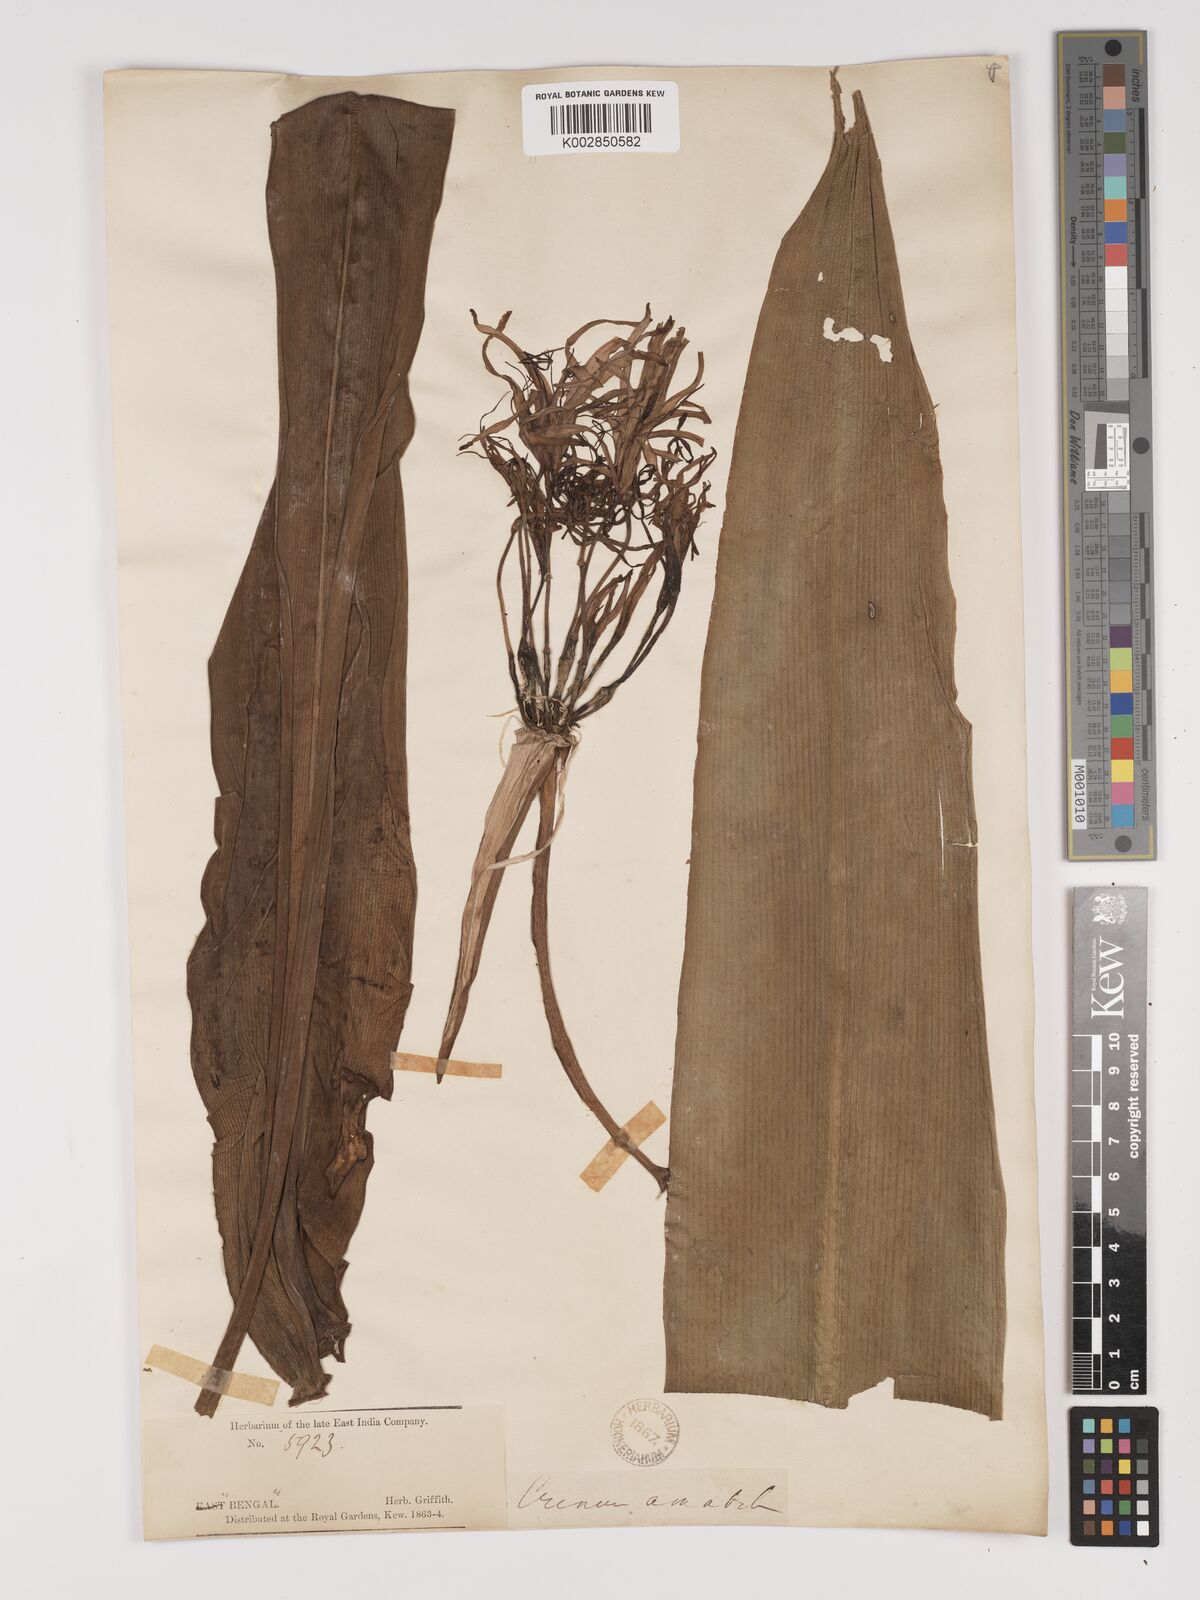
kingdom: Plantae
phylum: Tracheophyta
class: Liliopsida
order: Asparagales
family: Amaryllidaceae
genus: Crinum
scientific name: Crinum asiaticum
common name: Poisonbulb
